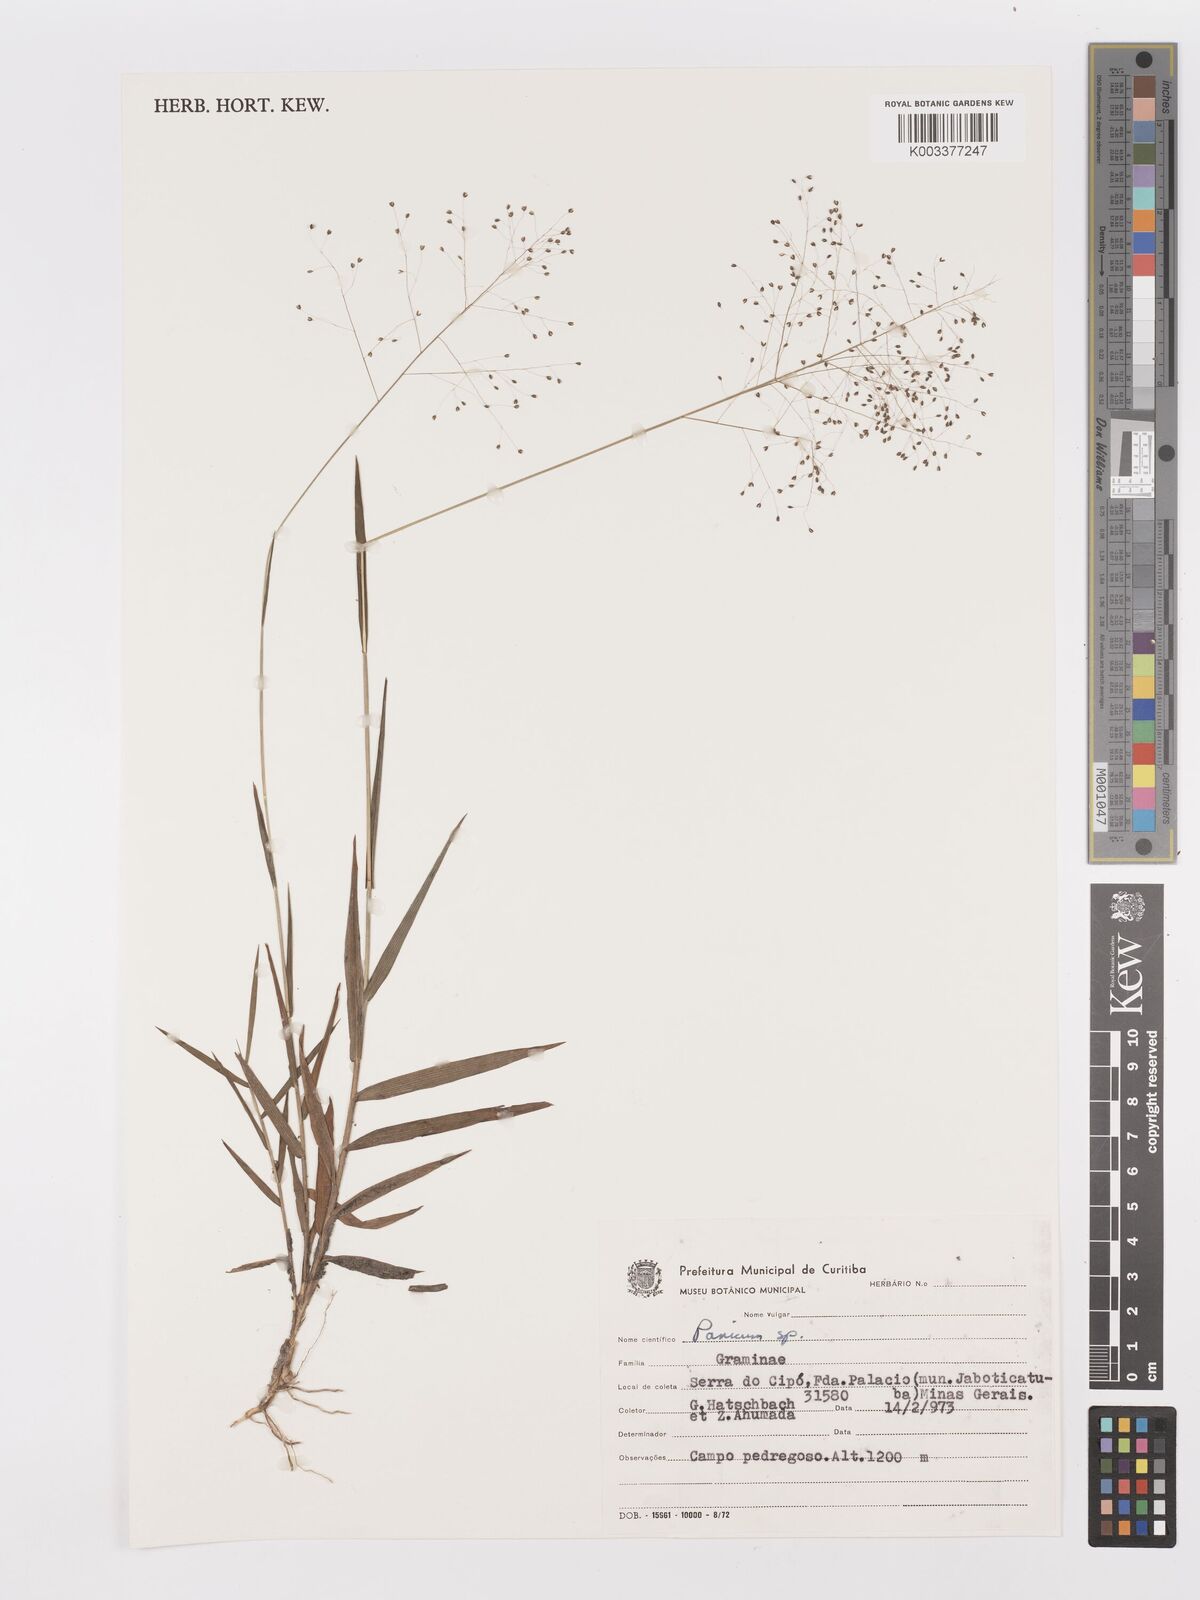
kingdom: Plantae
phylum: Tracheophyta
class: Liliopsida
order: Poales
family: Poaceae
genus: Trichanthecium
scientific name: Trichanthecium pseudisachne
